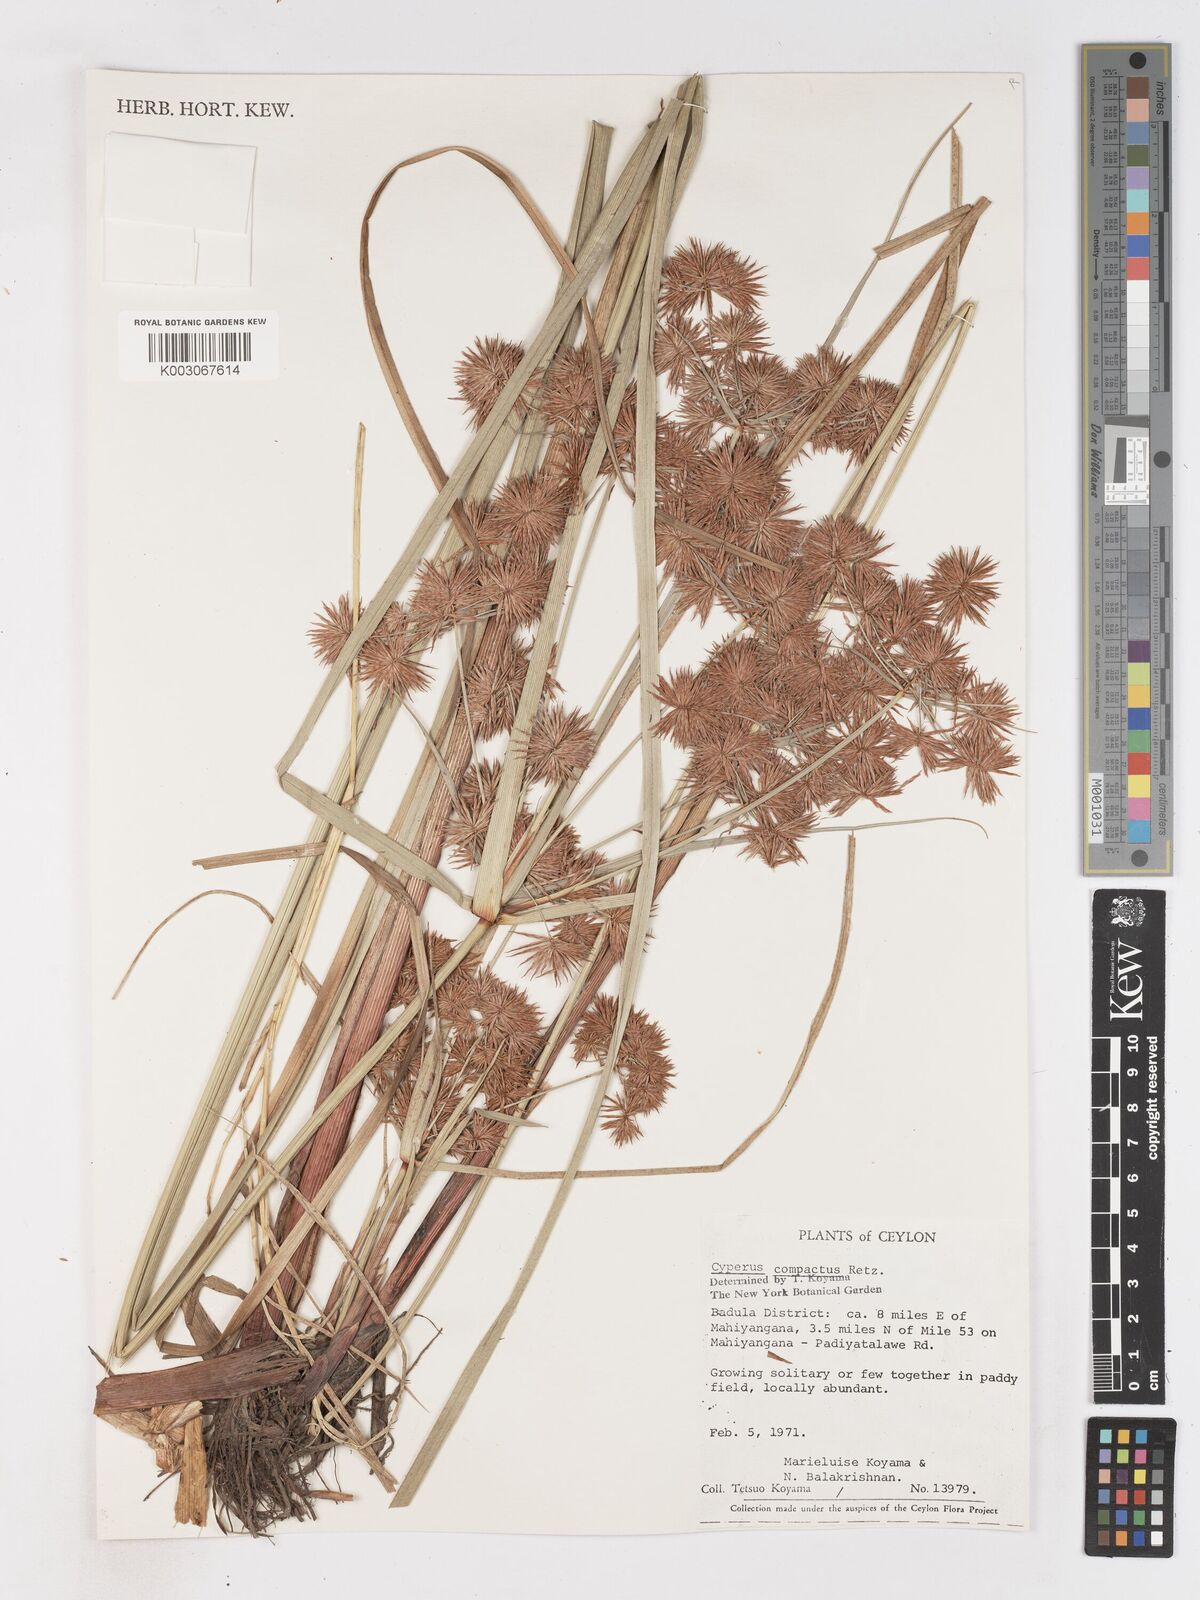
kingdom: Plantae
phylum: Tracheophyta
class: Liliopsida
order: Poales
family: Cyperaceae
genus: Cyperus
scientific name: Cyperus compactus
